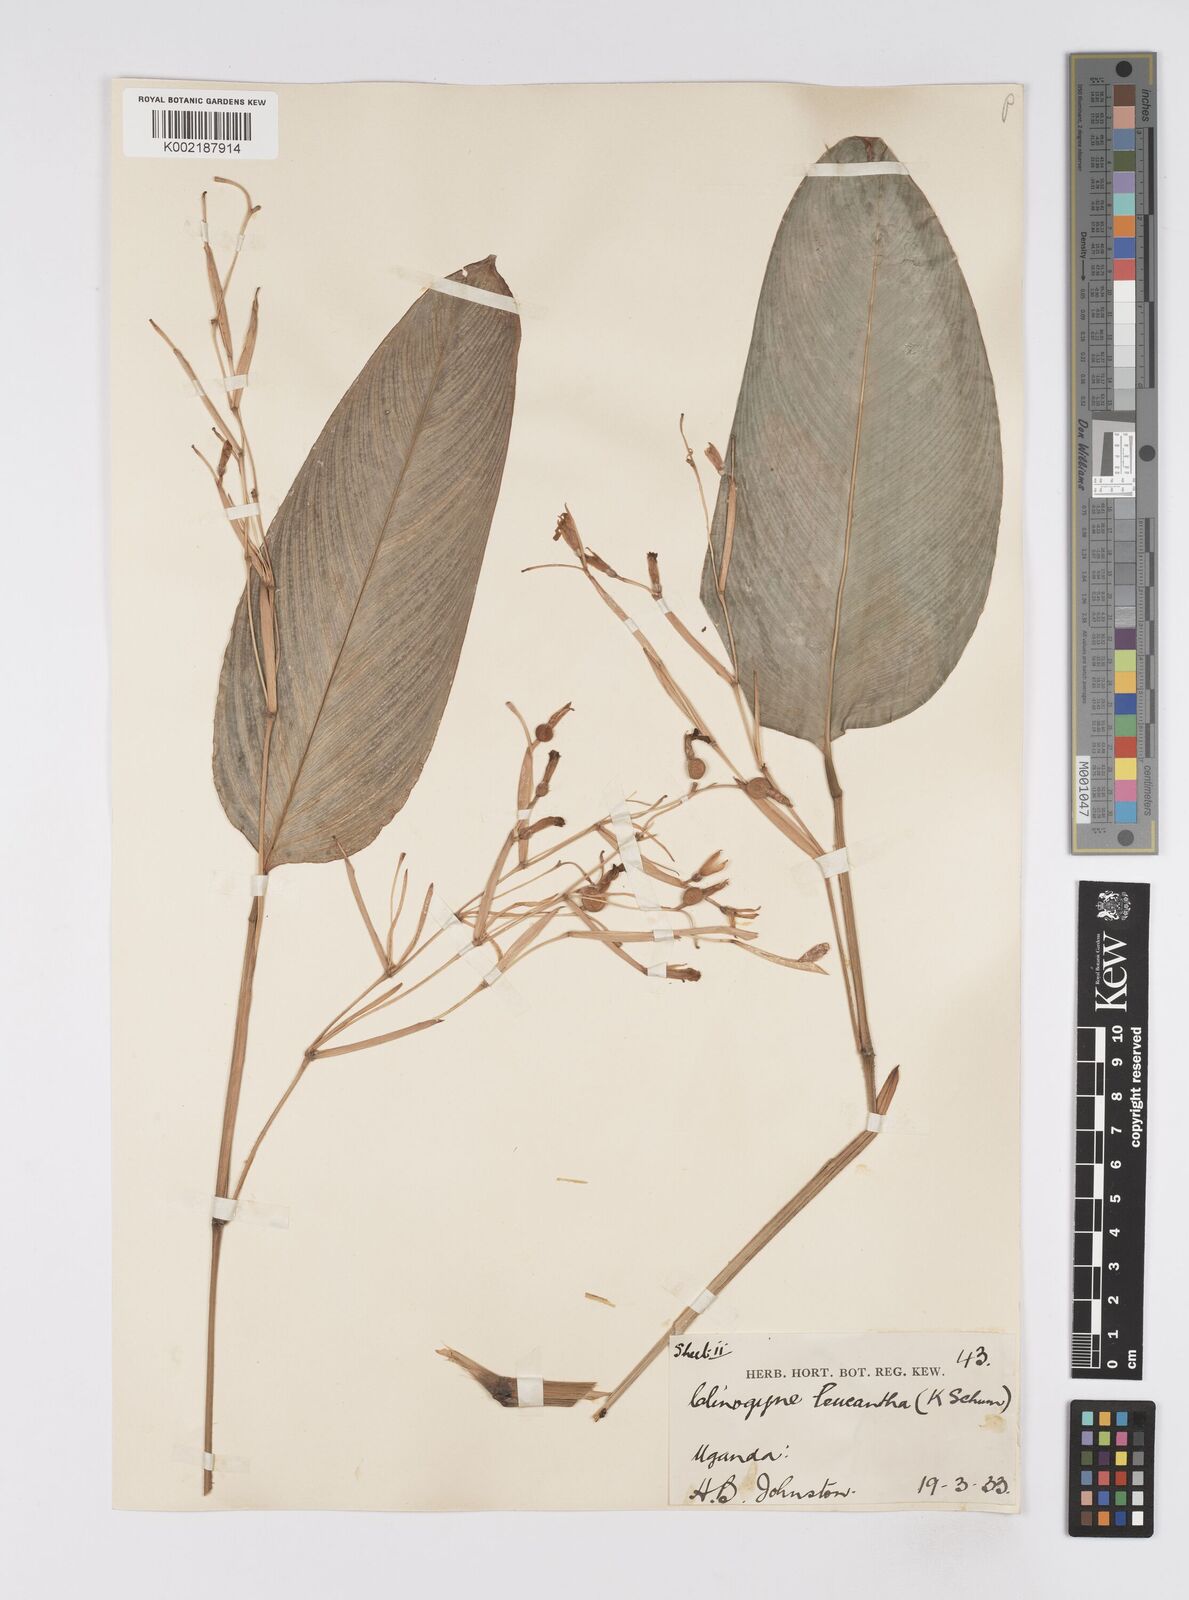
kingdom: Plantae
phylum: Tracheophyta
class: Liliopsida
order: Zingiberales
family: Marantaceae
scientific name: Marantaceae
